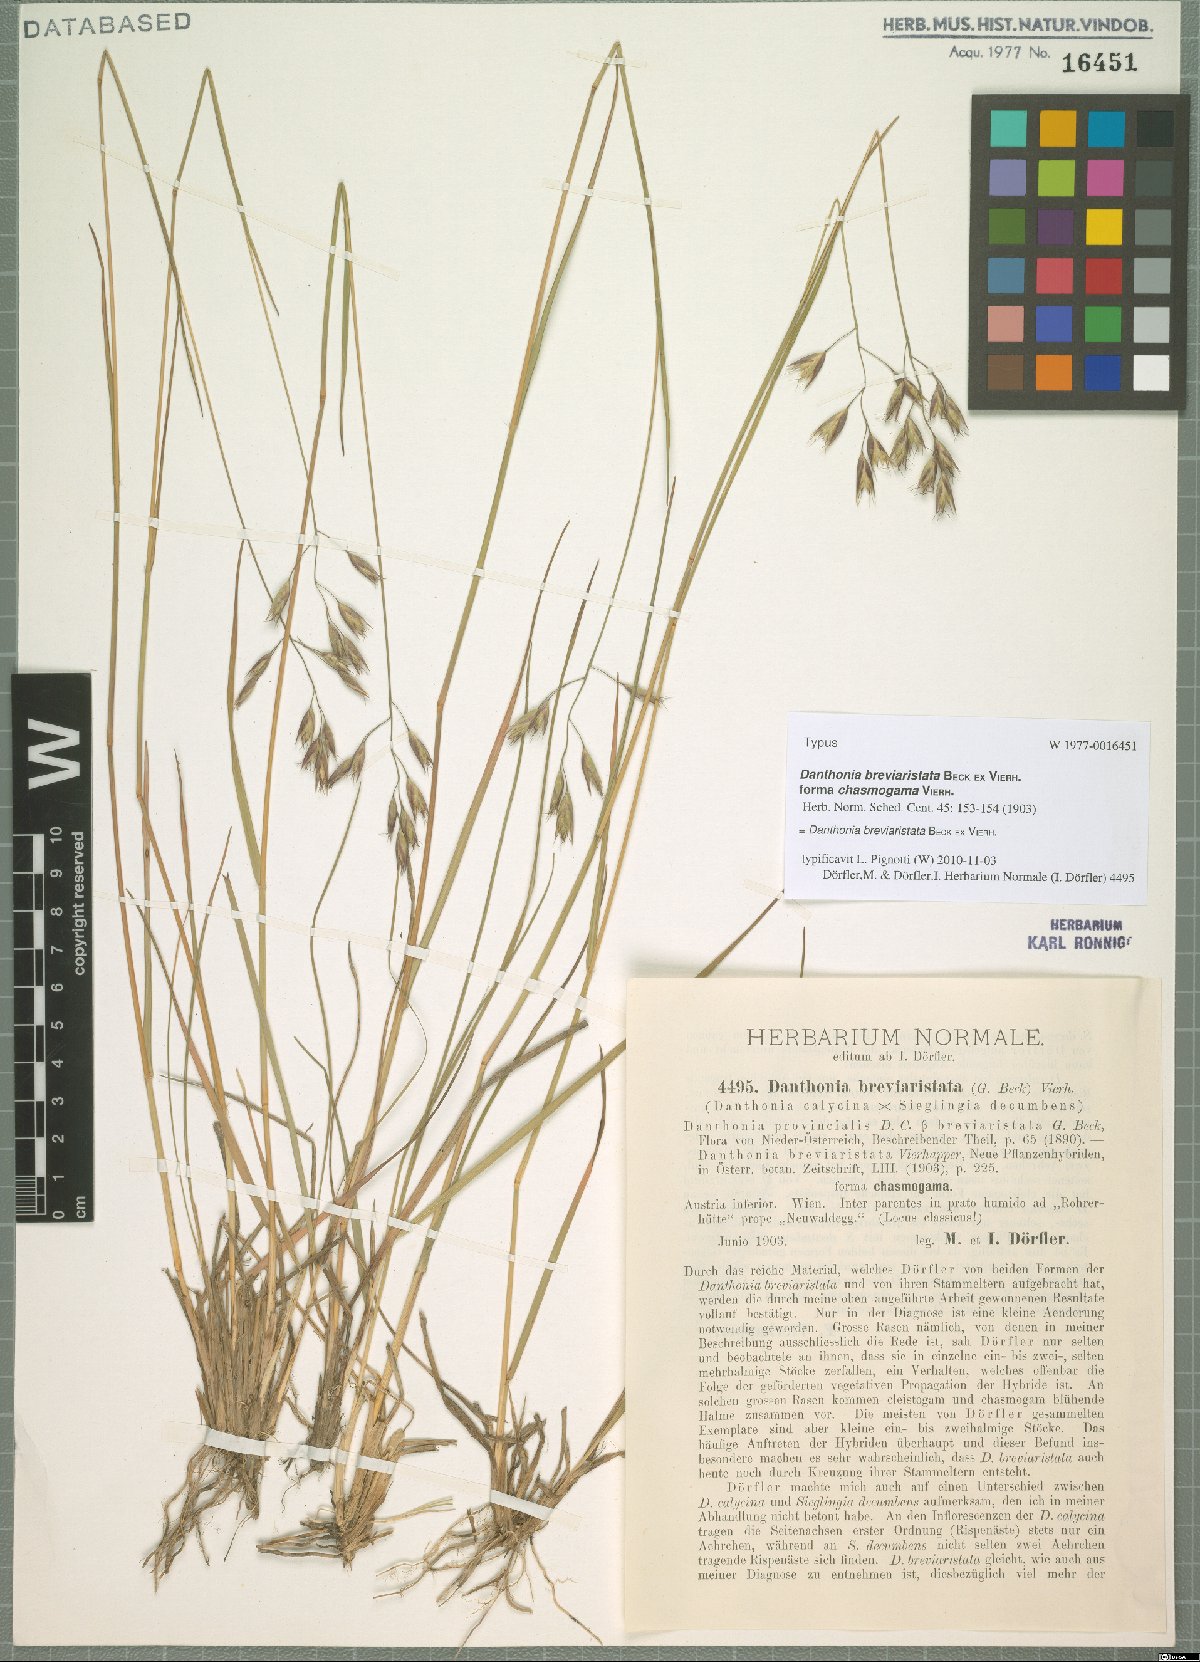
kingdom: Plantae
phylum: Tracheophyta
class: Liliopsida
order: Poales
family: Poaceae
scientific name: Poaceae
